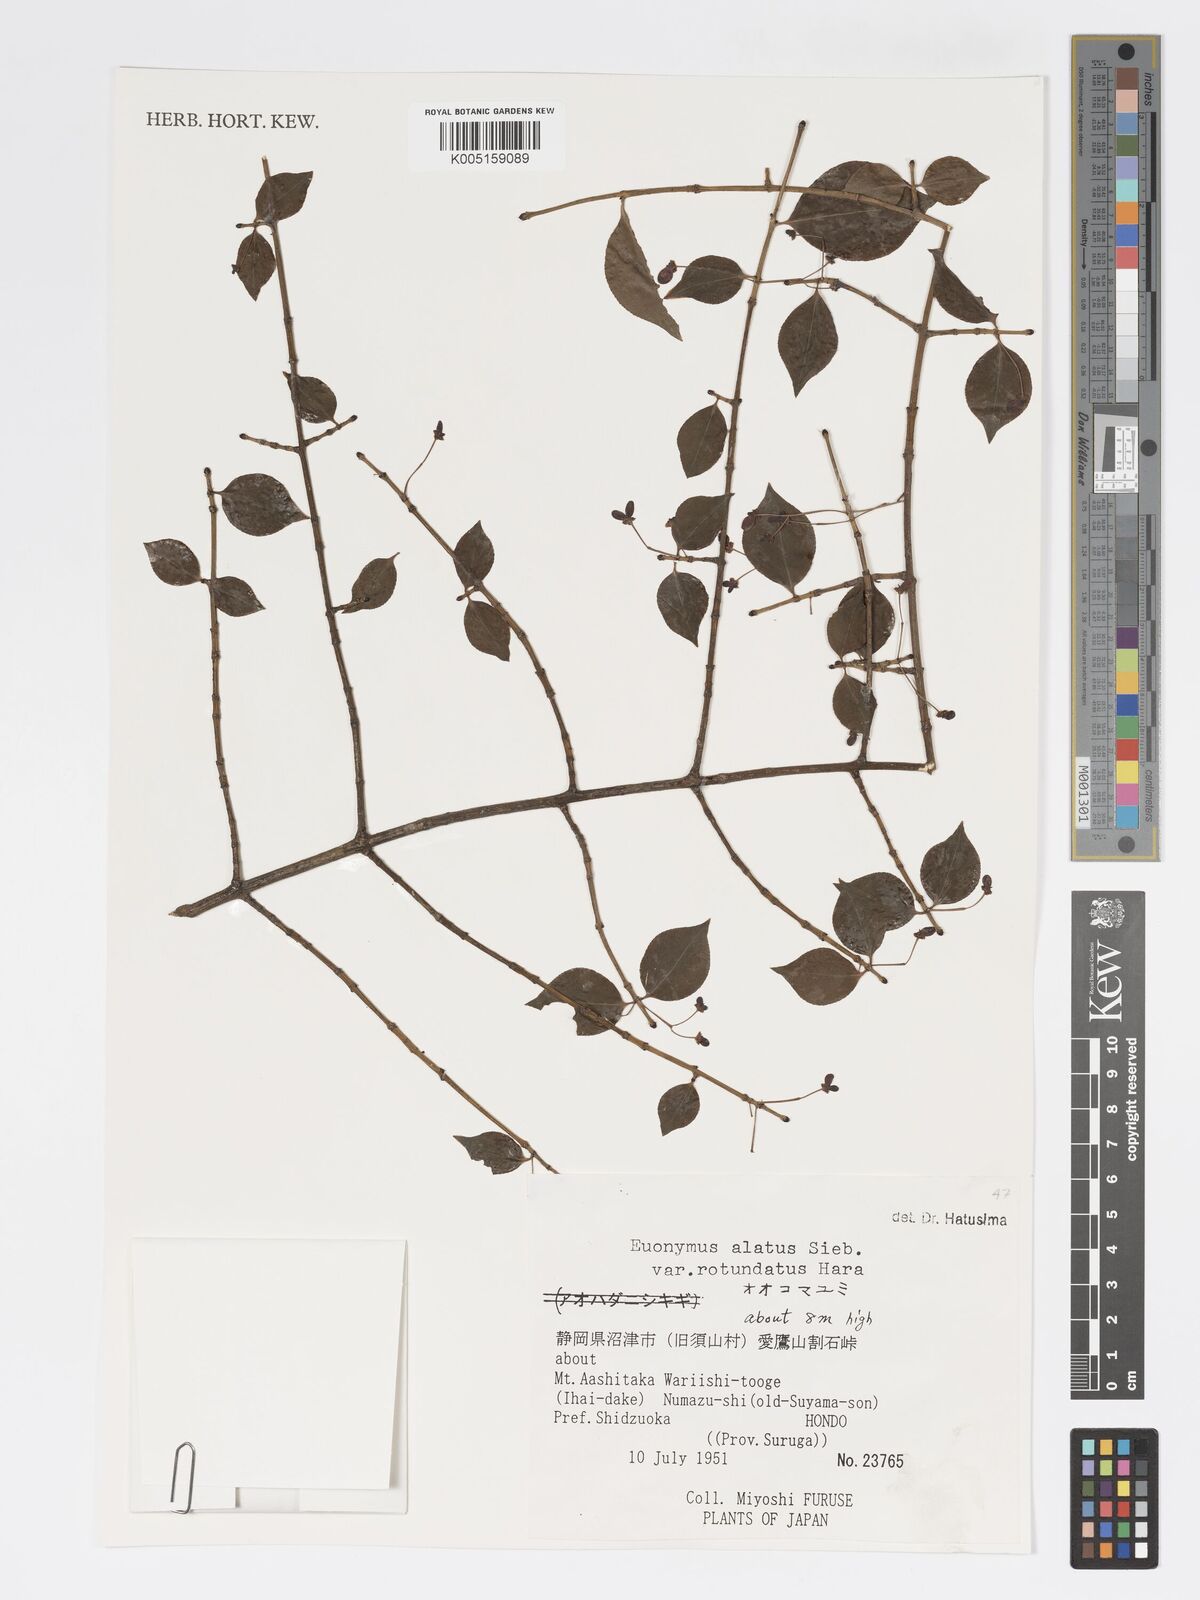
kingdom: Plantae
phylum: Tracheophyta
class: Magnoliopsida
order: Celastrales
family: Celastraceae
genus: Euonymus
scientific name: Euonymus
